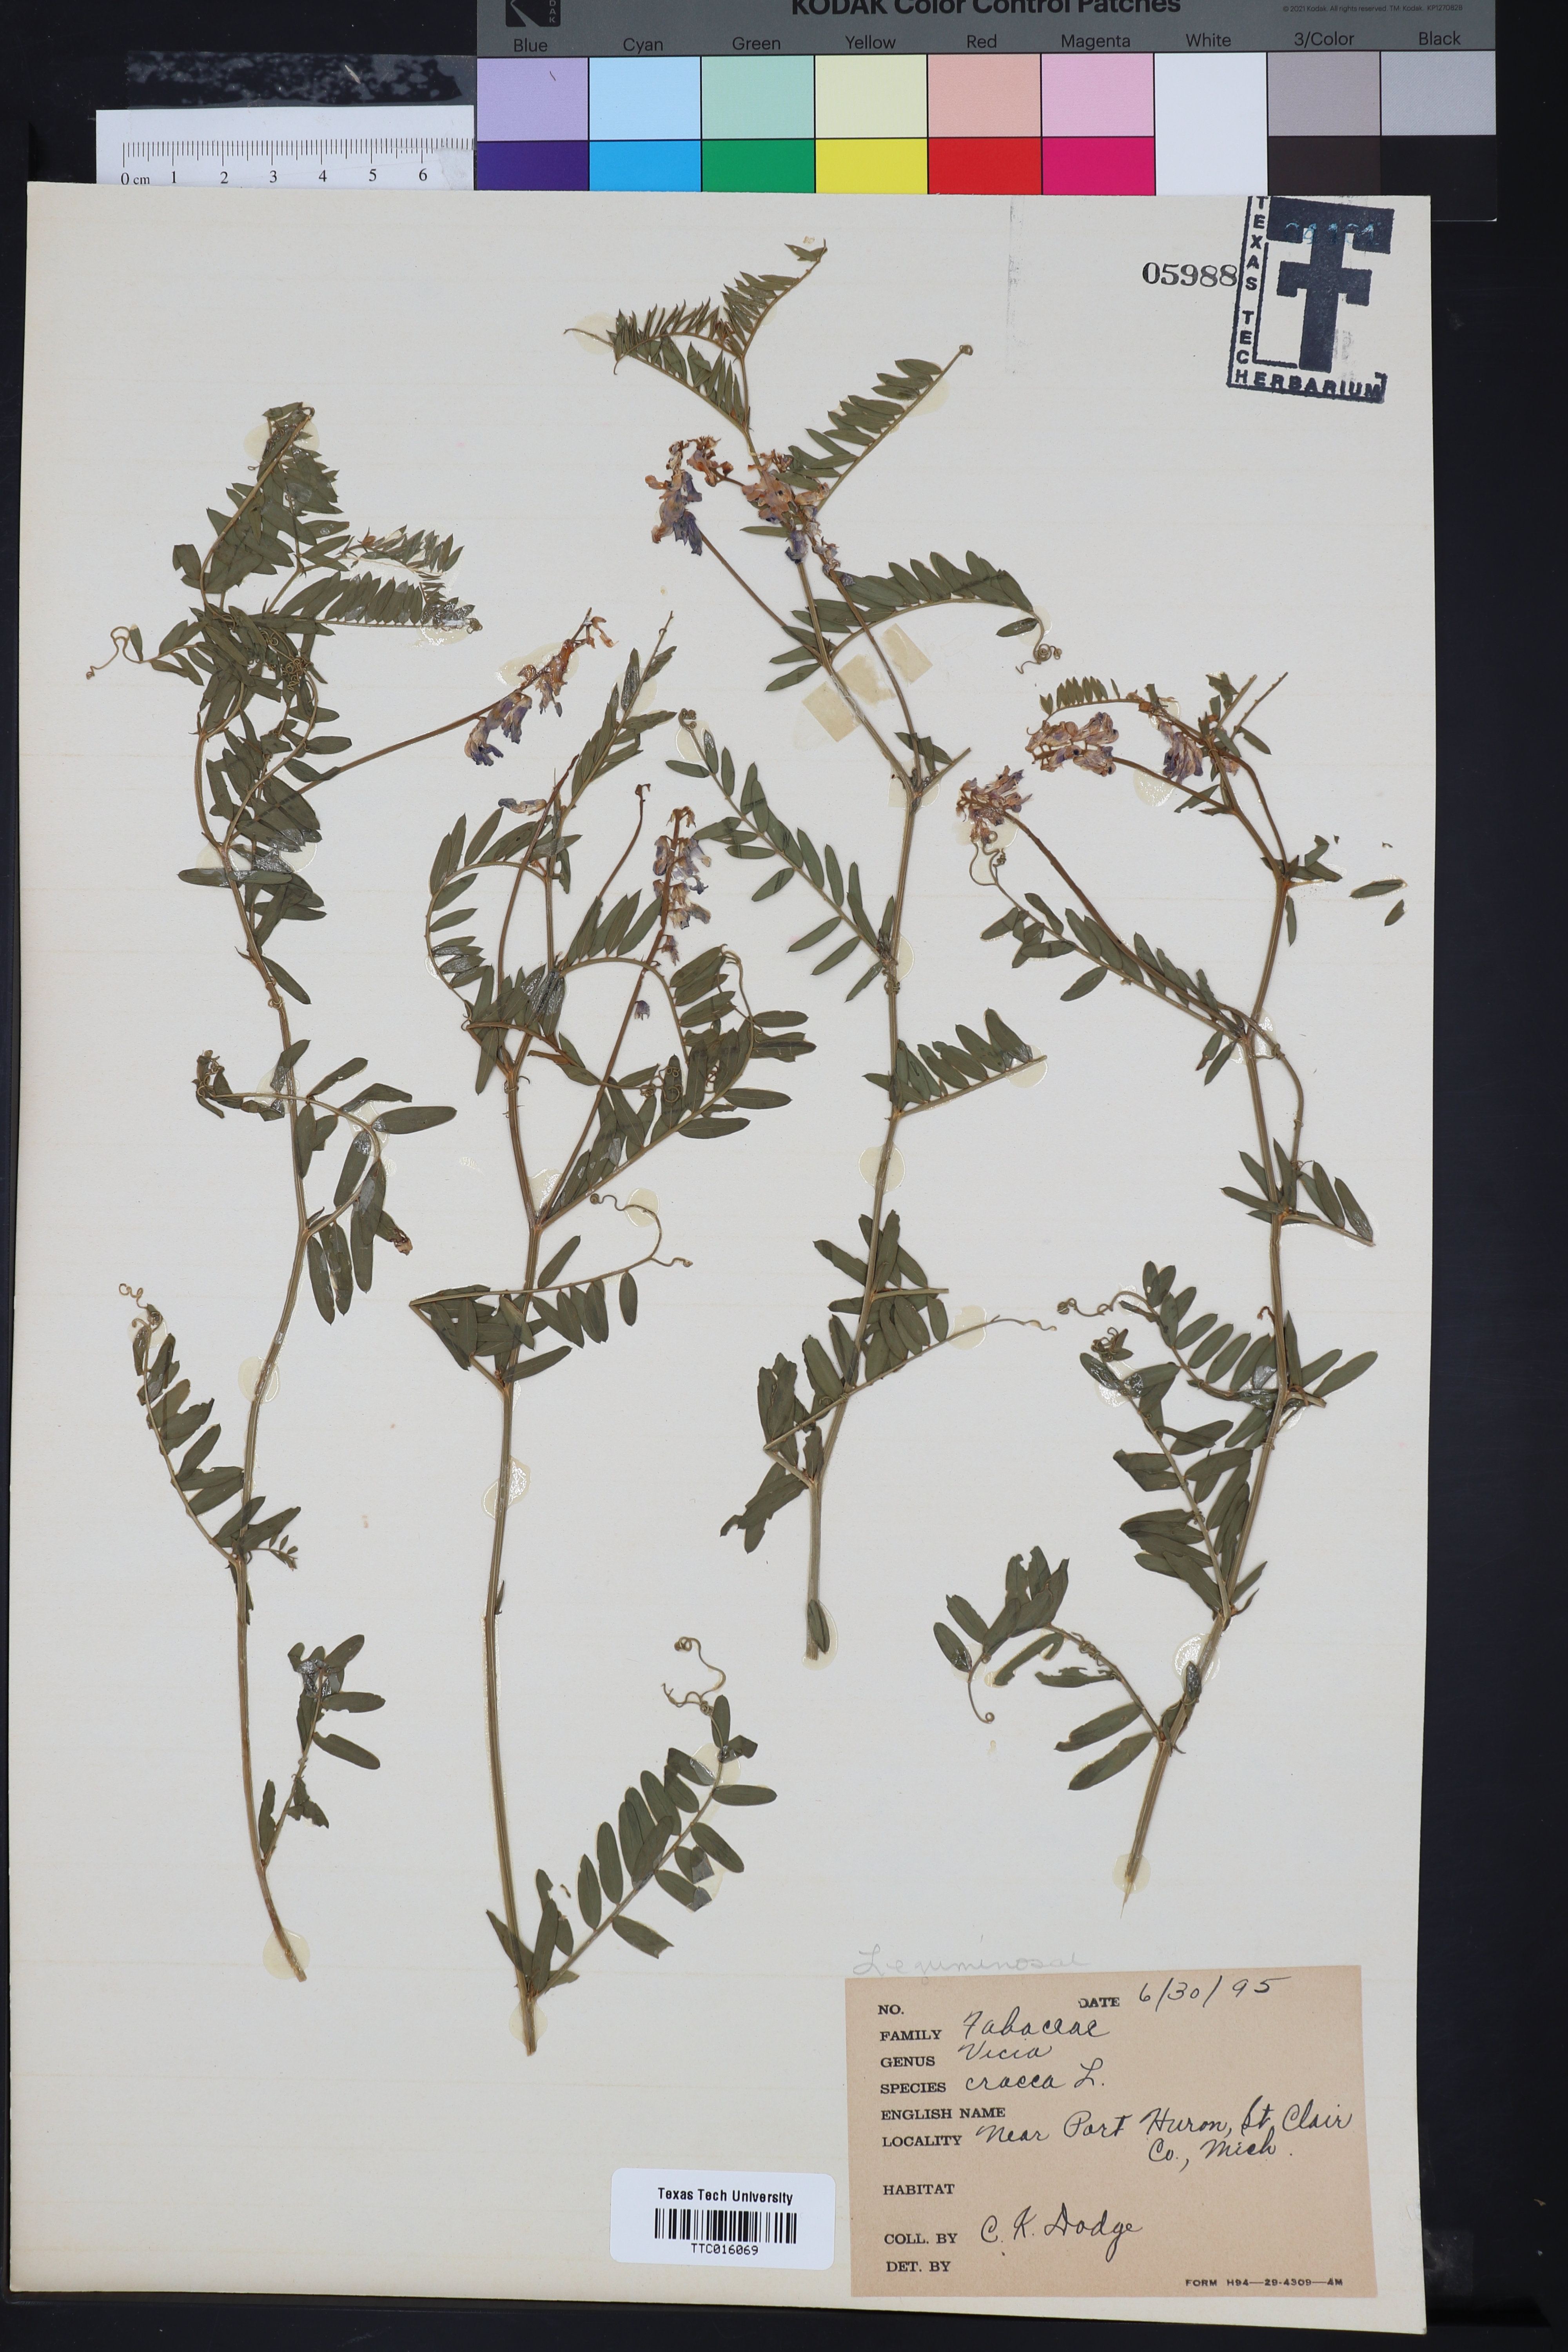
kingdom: Plantae
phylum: Tracheophyta
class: Magnoliopsida
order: Fabales
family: Fabaceae
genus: Vicia
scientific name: Vicia cracca
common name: Bird vetch
